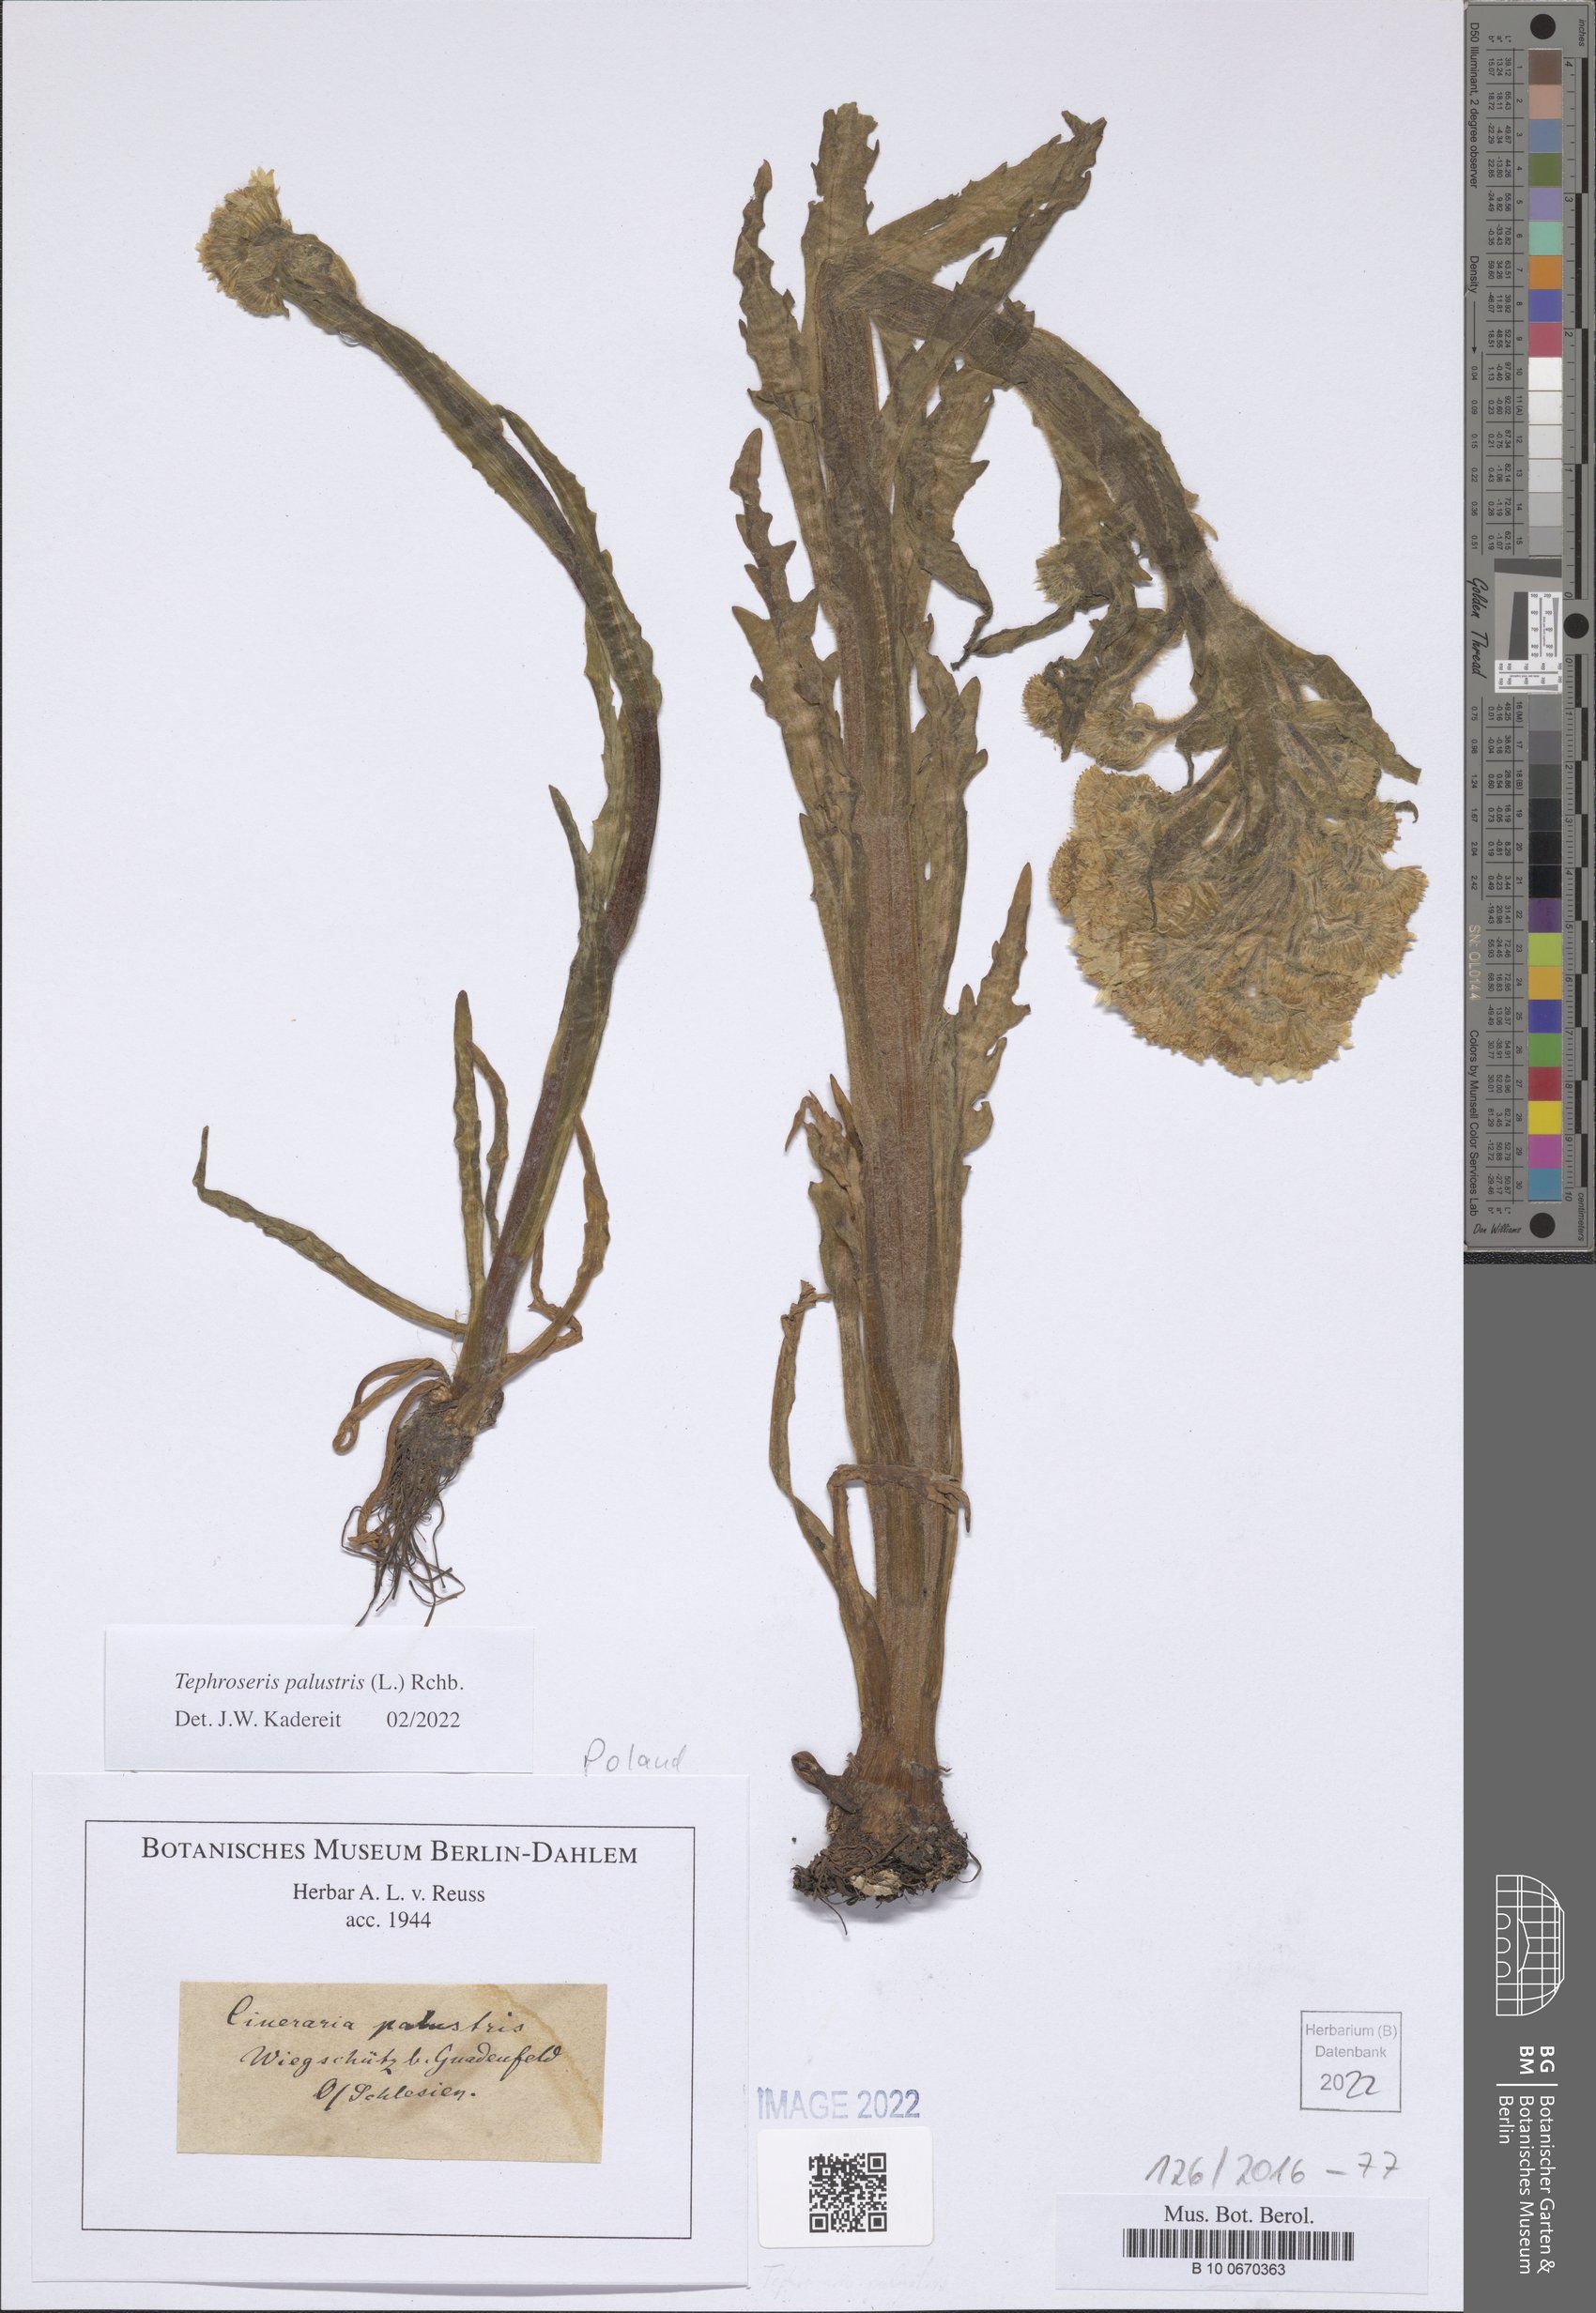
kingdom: Plantae
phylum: Tracheophyta
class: Magnoliopsida
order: Asterales
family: Asteraceae
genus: Tephroseris
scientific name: Tephroseris palustris
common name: Marsh fleawort
